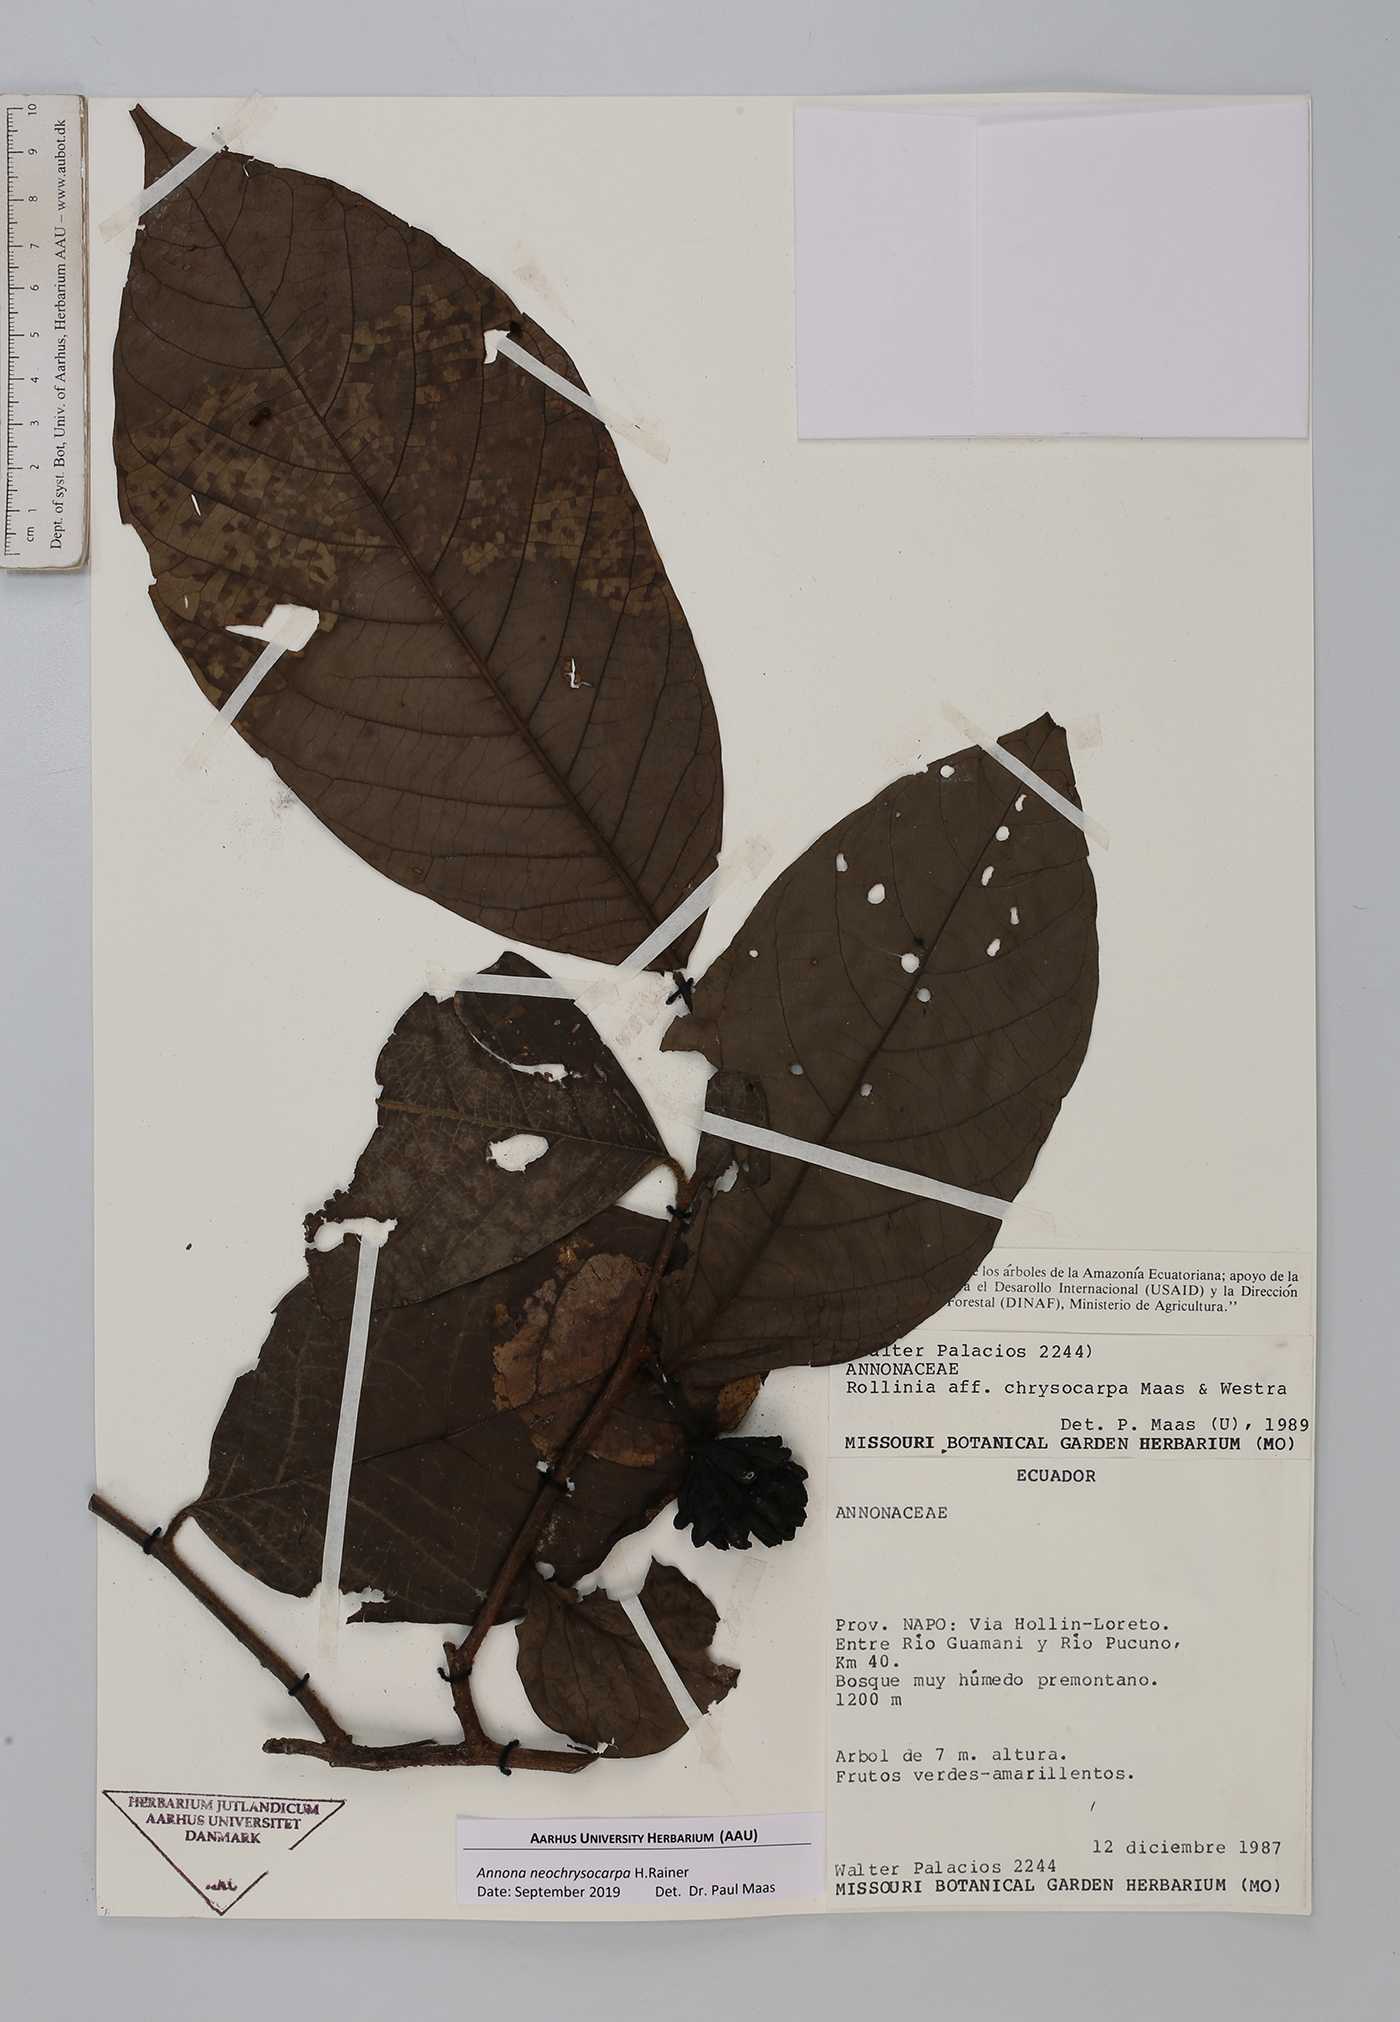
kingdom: Plantae
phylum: Tracheophyta
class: Magnoliopsida
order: Magnoliales
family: Annonaceae
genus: Annona
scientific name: Annona neochrysocarpa
